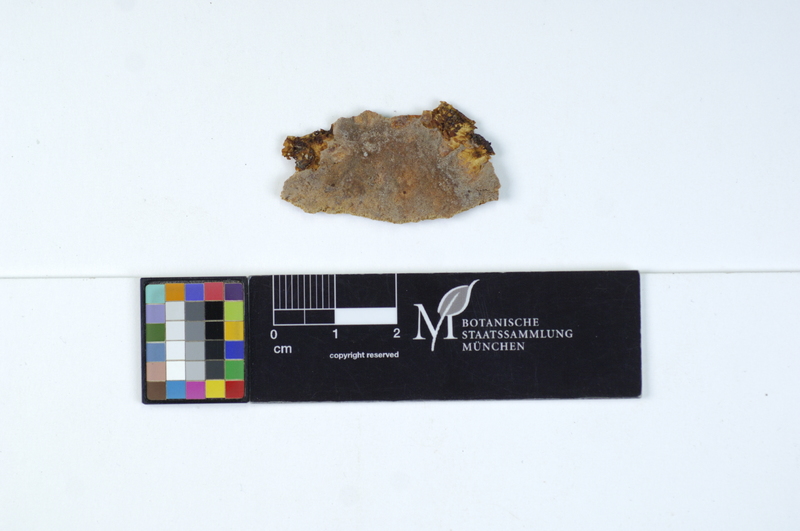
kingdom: Fungi
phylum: Basidiomycota
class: Agaricomycetes
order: Polyporales
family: Meruliaceae
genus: Physisporinus
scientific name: Physisporinus vitreus
